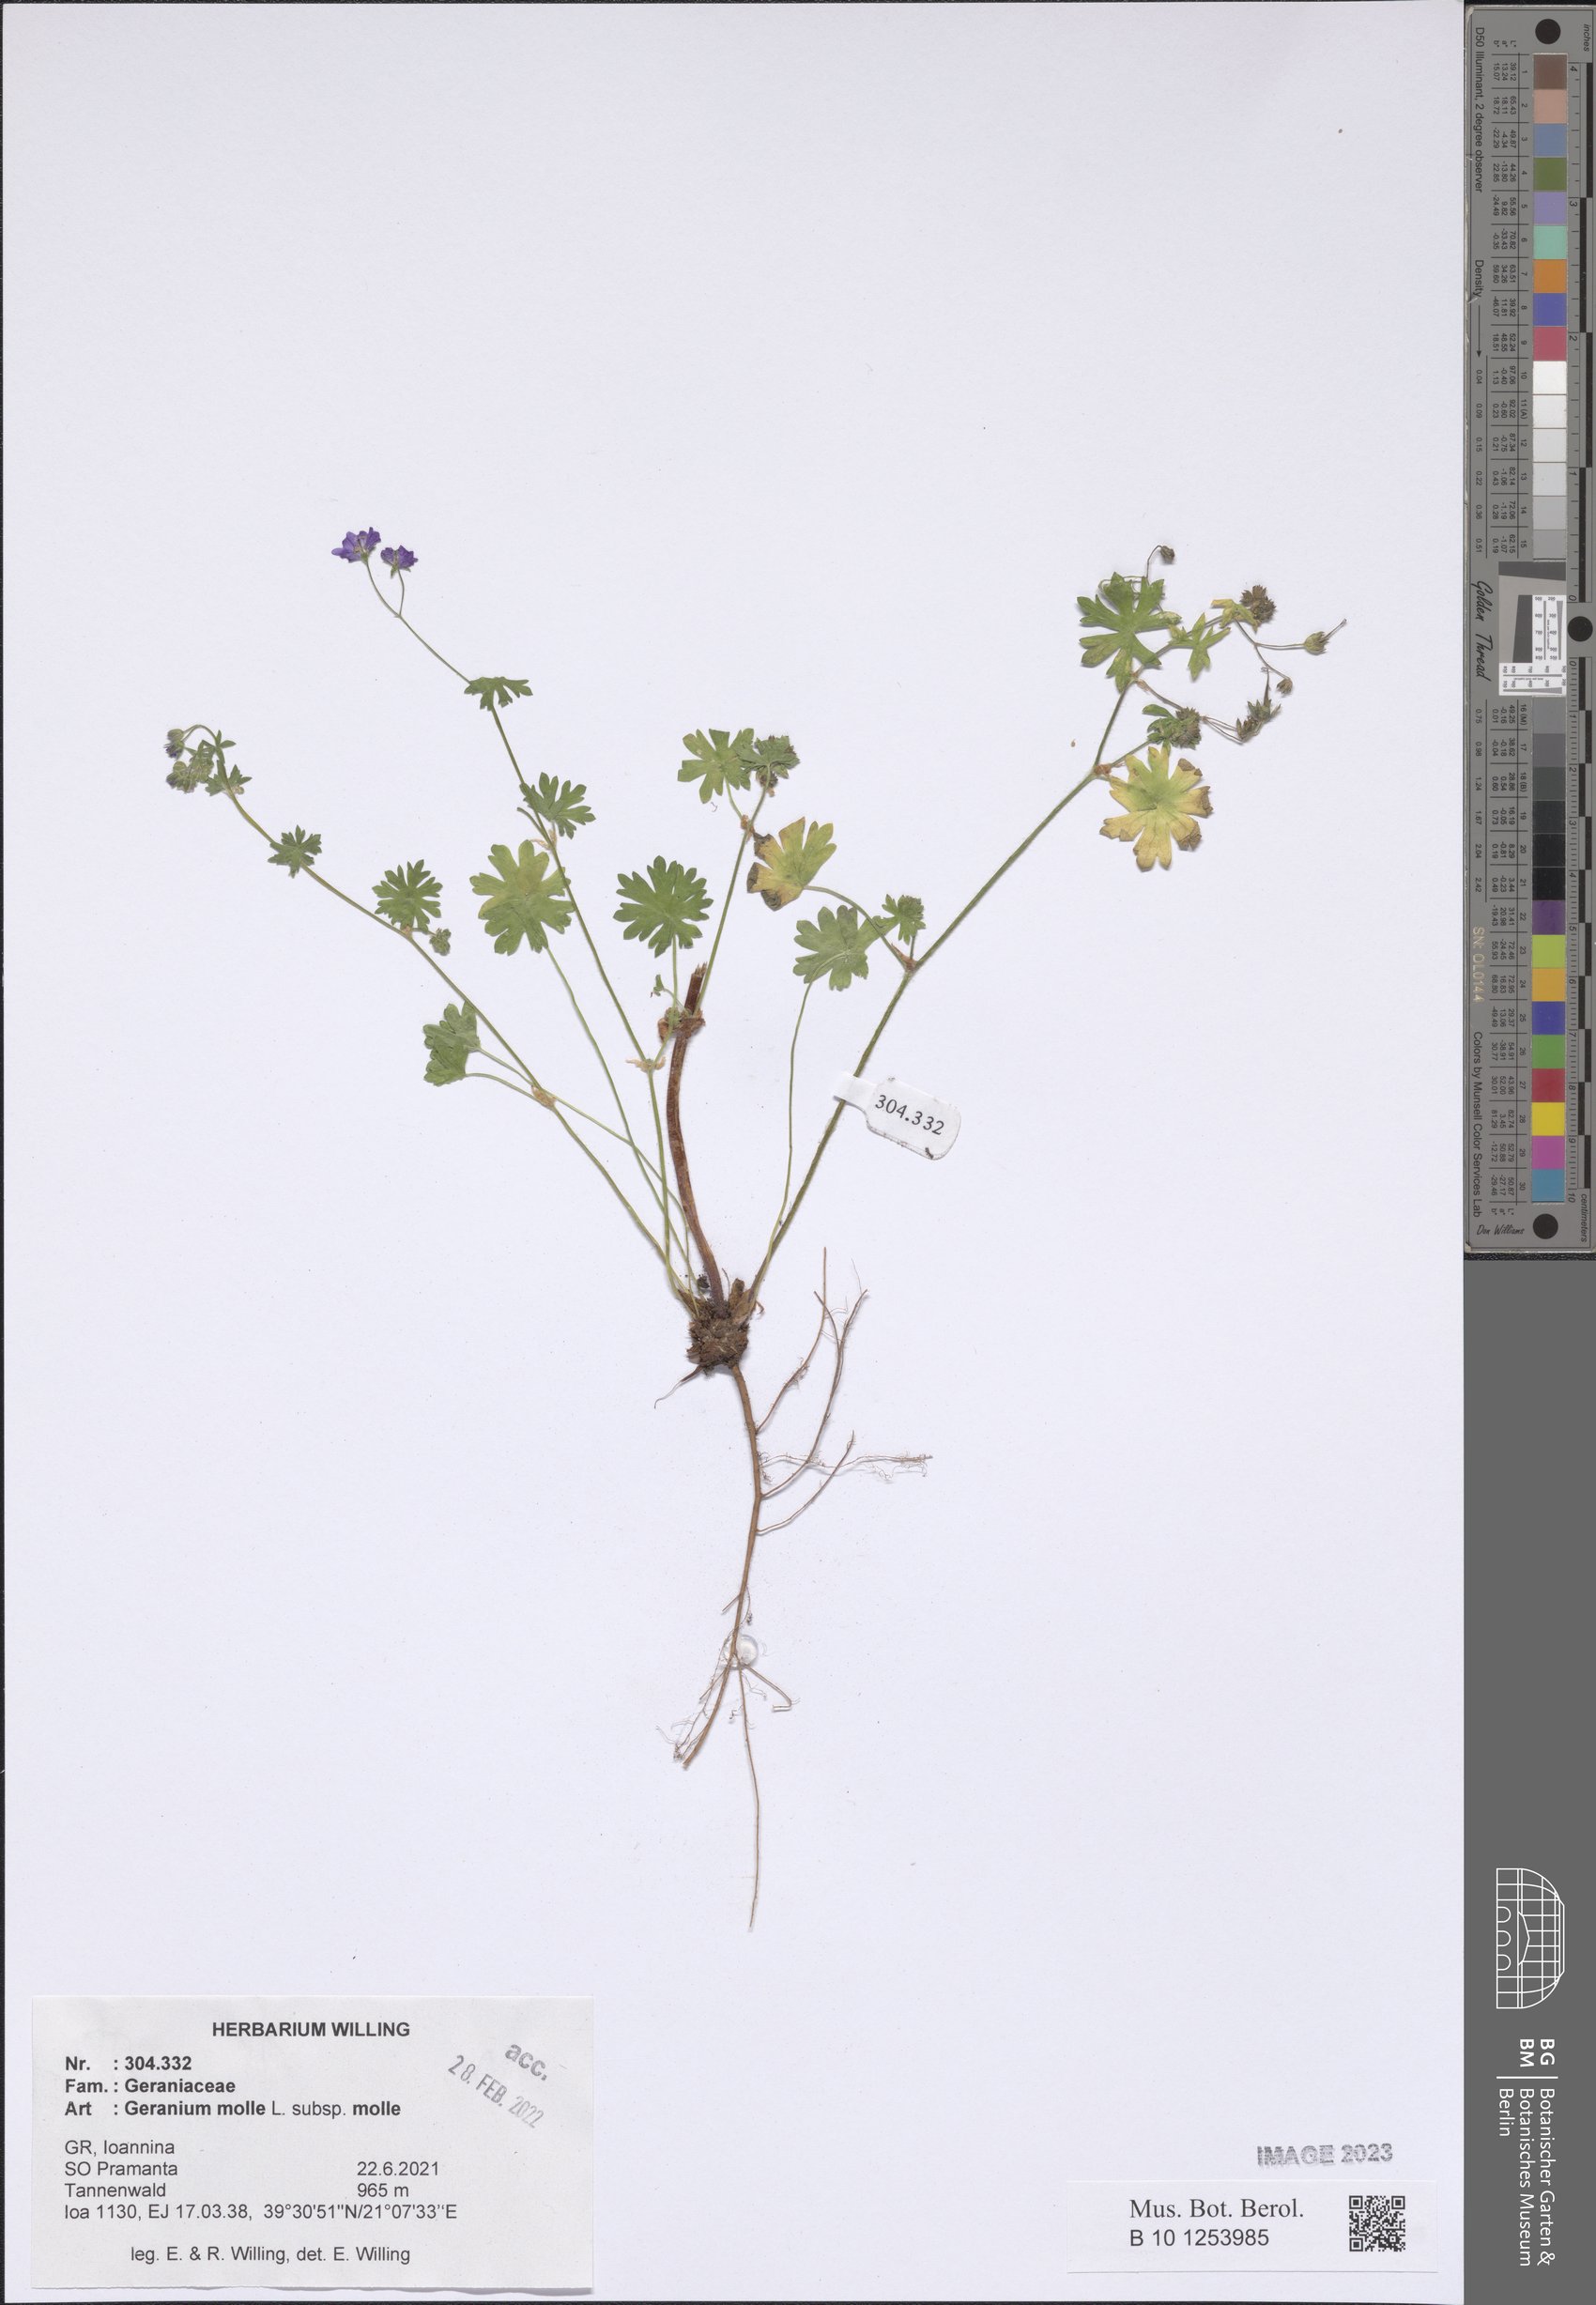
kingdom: Plantae
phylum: Tracheophyta
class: Magnoliopsida
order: Geraniales
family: Geraniaceae
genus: Geranium
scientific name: Geranium molle
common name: Dove's-foot crane's-bill
